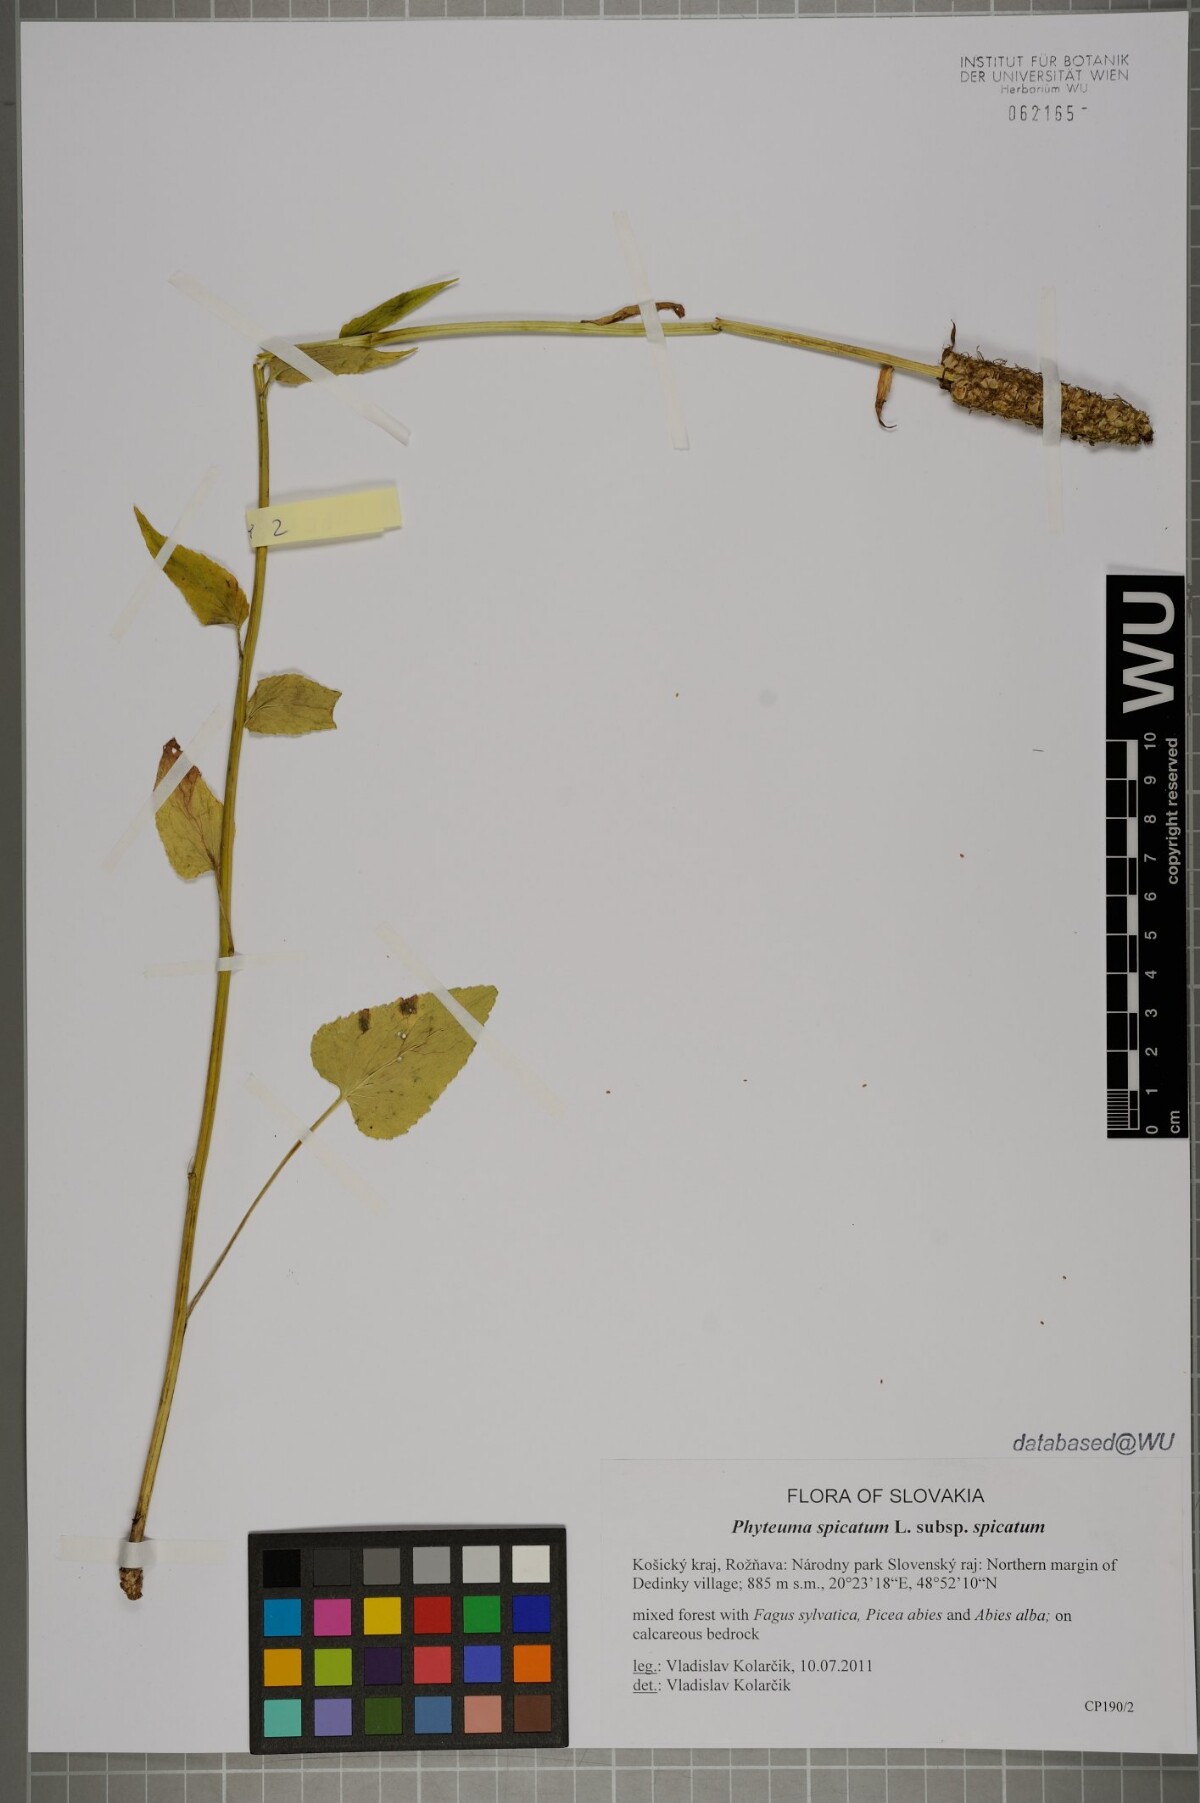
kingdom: Plantae
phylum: Tracheophyta
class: Magnoliopsida
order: Asterales
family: Campanulaceae
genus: Phyteuma
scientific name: Phyteuma spicatum
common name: Spiked rampion
